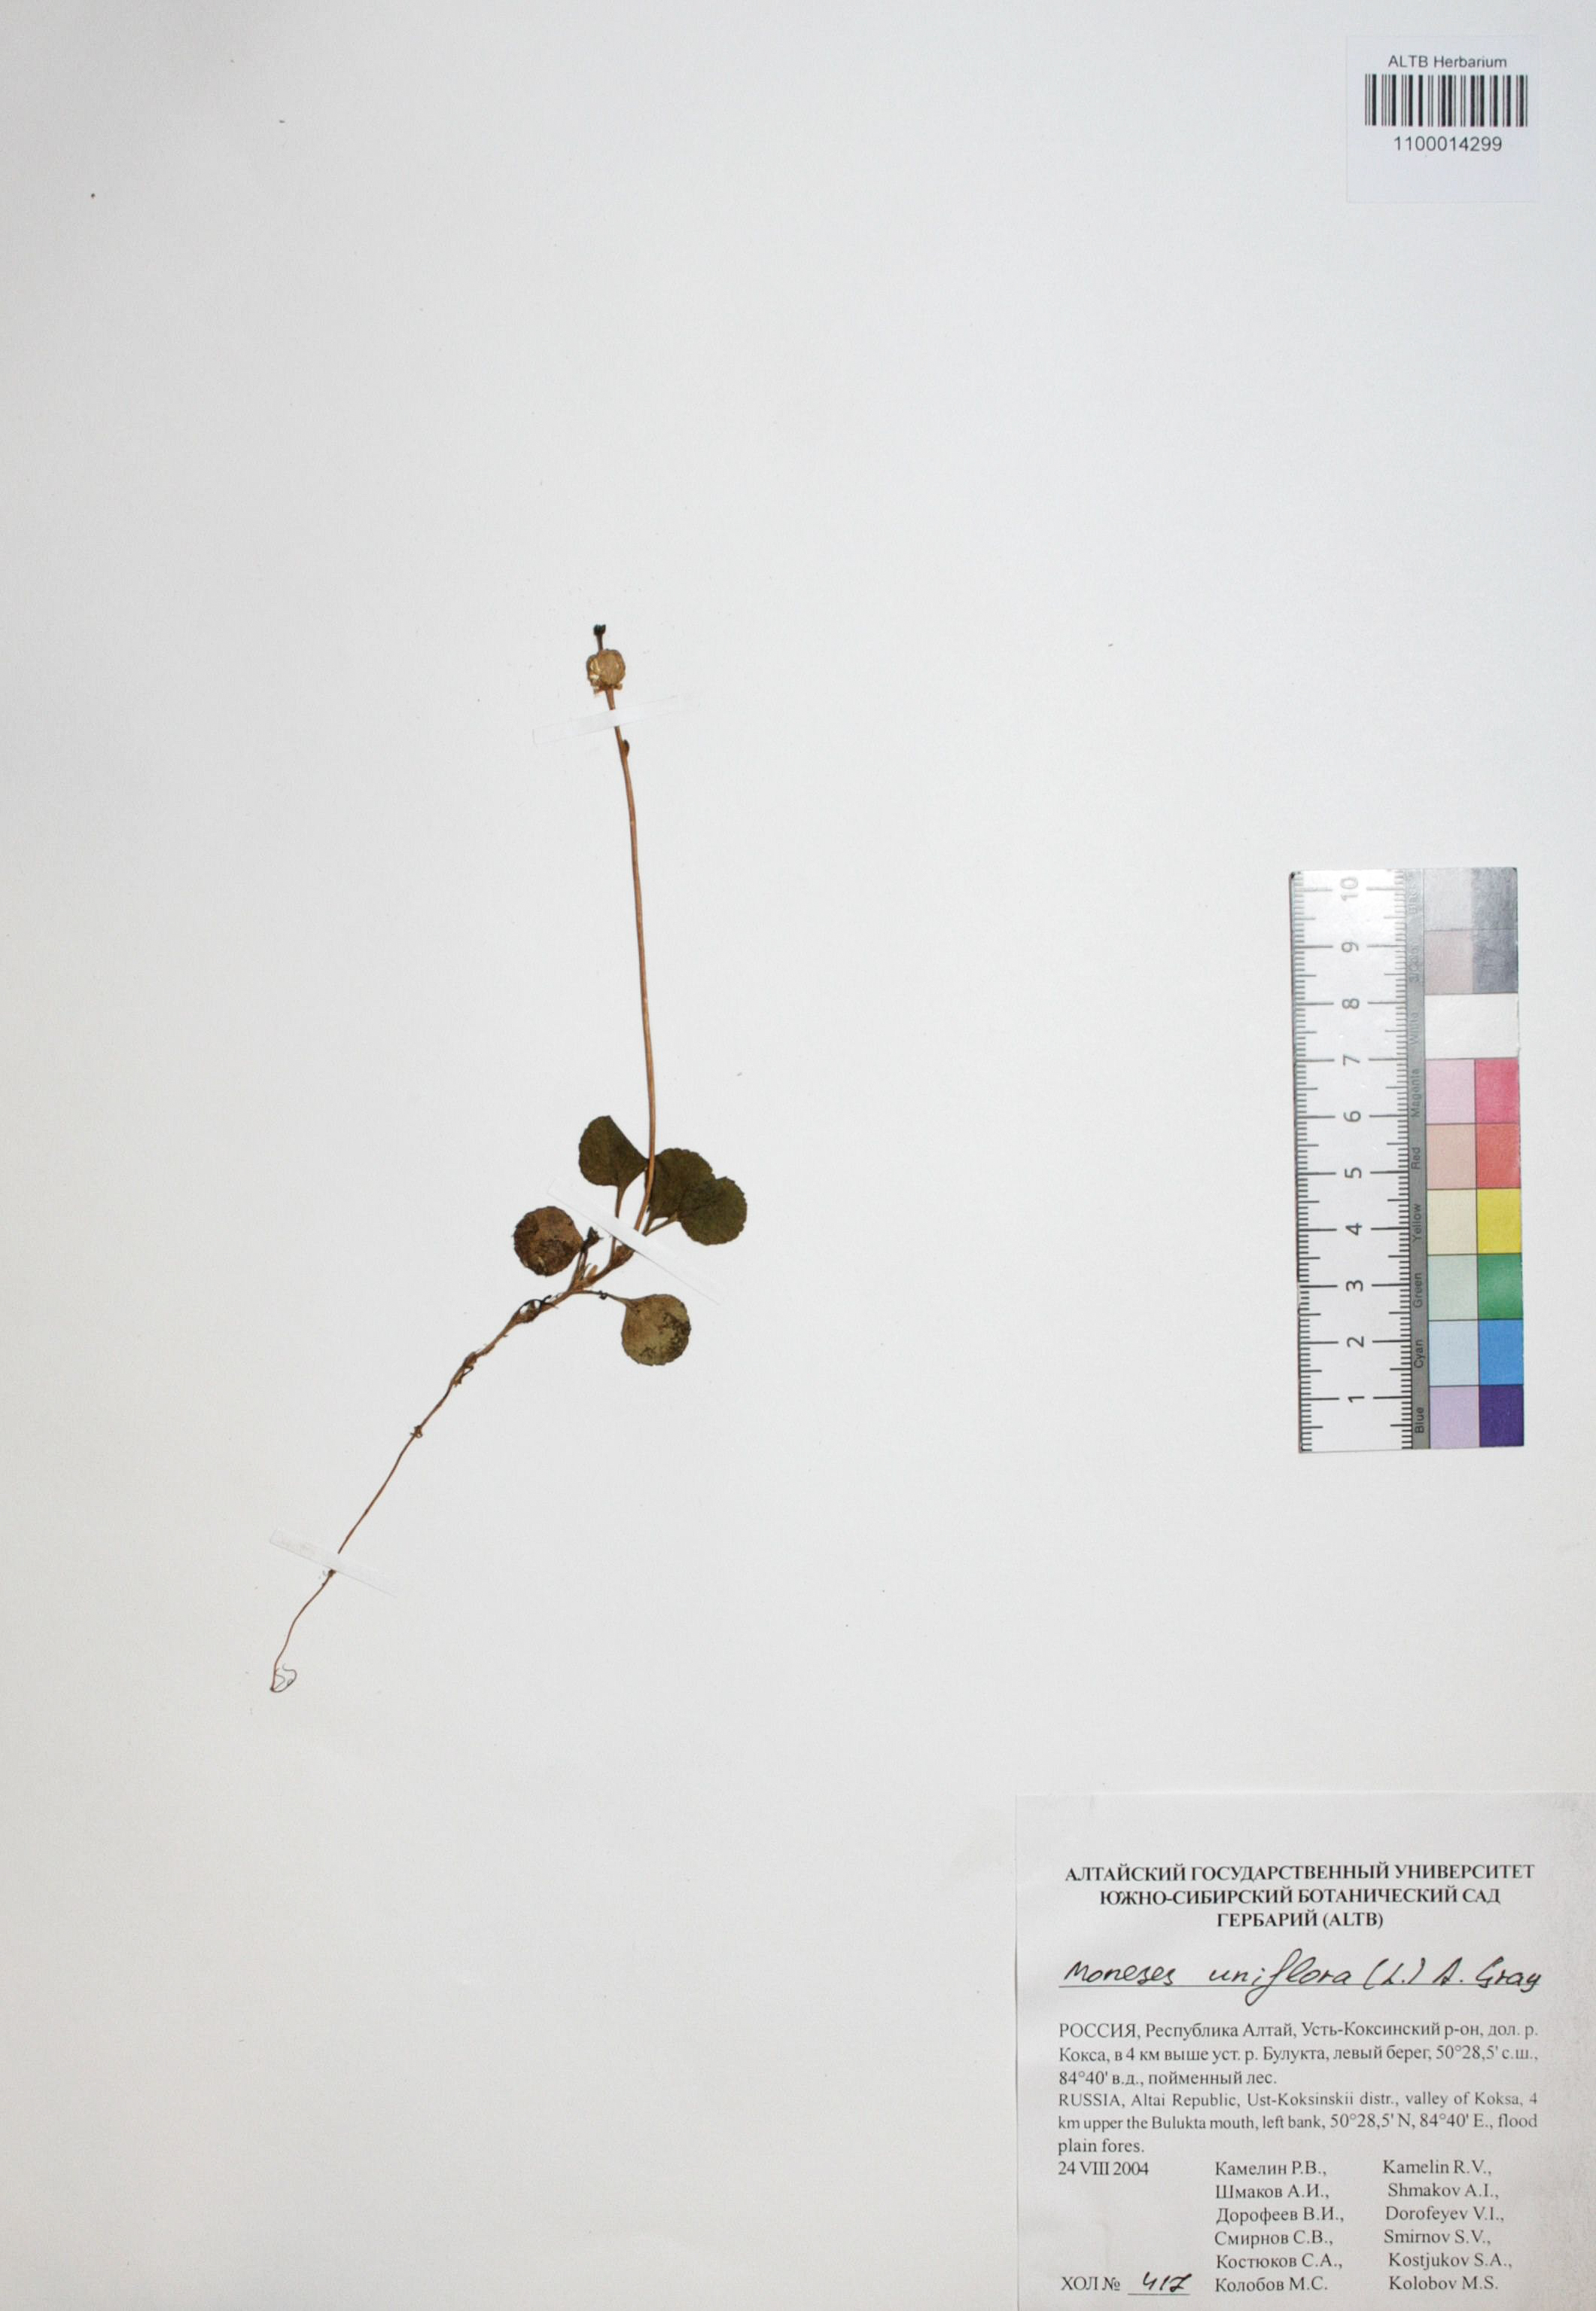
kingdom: Plantae
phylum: Tracheophyta
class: Magnoliopsida
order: Ericales
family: Ericaceae
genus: Moneses
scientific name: Moneses uniflora
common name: One-flowered wintergreen
